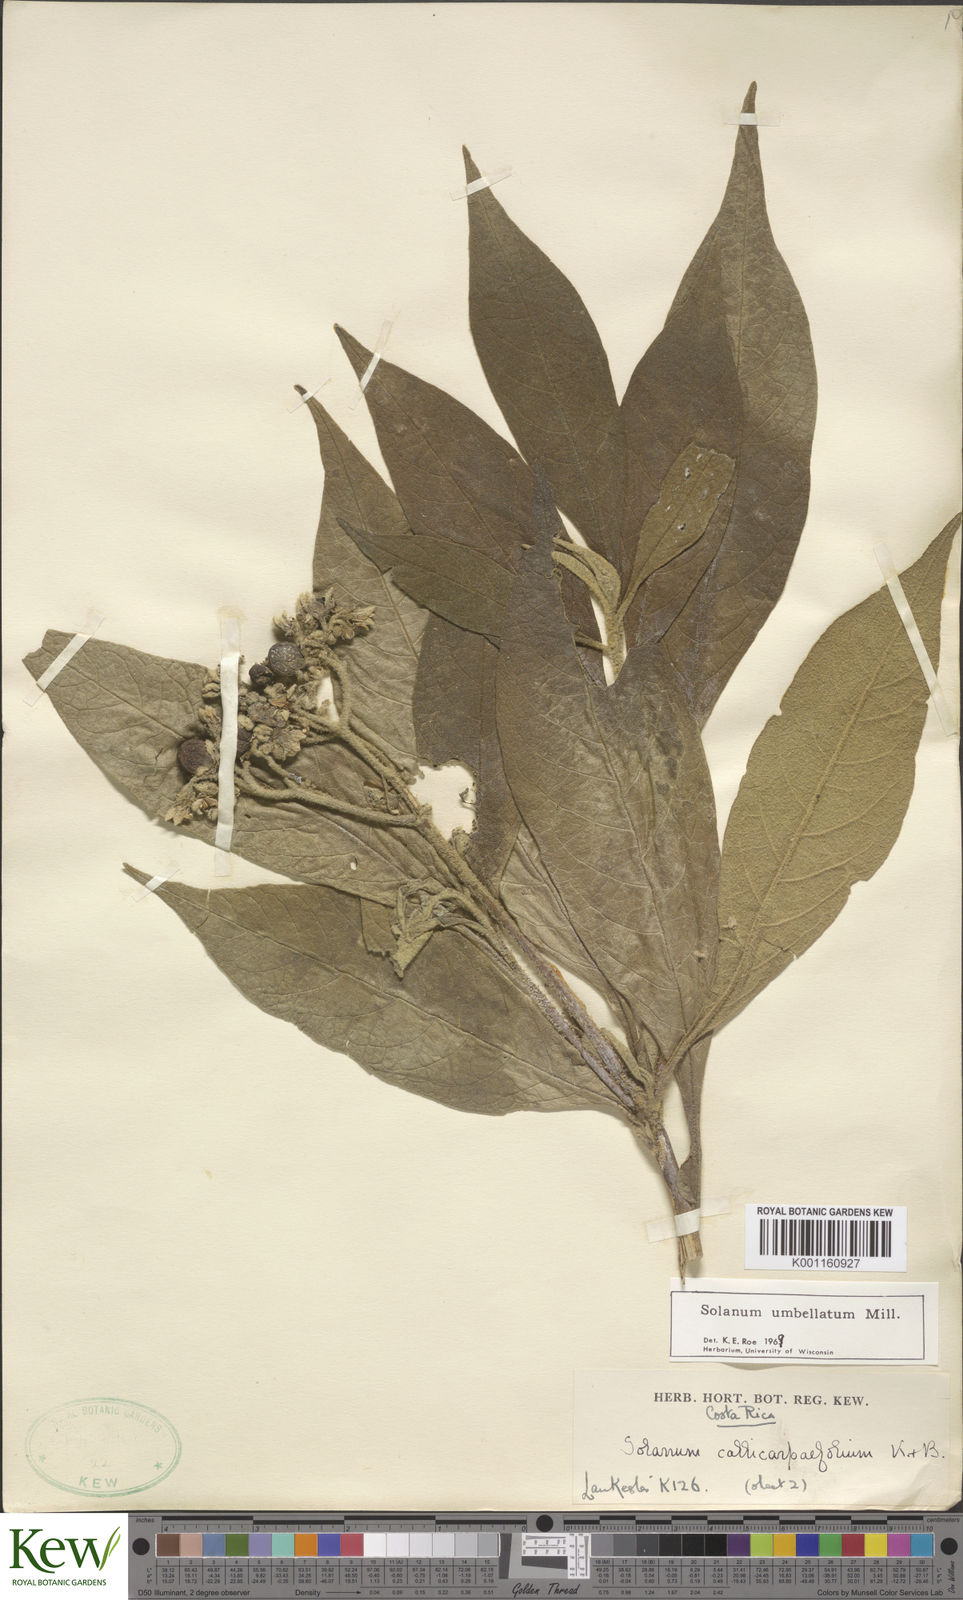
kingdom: Plantae
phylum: Tracheophyta
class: Magnoliopsida
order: Solanales
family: Solanaceae
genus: Solanum
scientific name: Solanum umbellatum
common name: Nightshade
